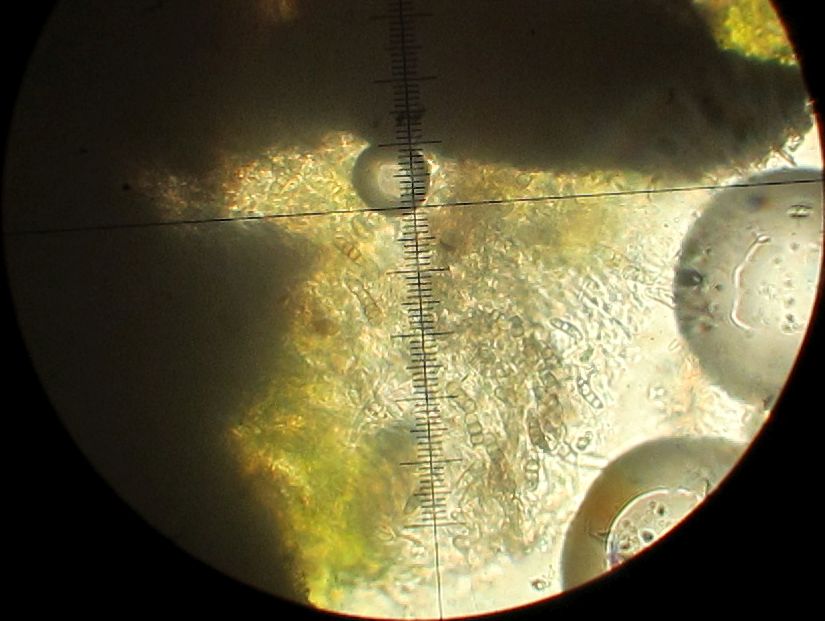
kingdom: Fungi
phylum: Ascomycota
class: Dothideomycetes
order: Pleosporales
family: Melanommataceae
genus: Melanomma
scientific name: Melanomma pulvis-pyrius
